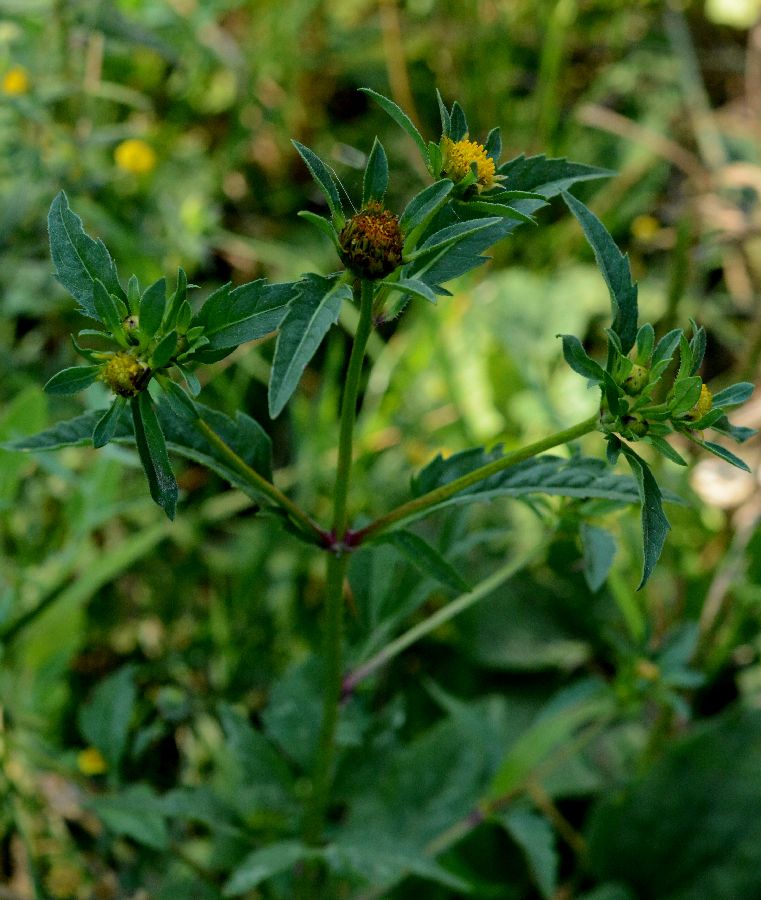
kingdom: Plantae
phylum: Tracheophyta
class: Magnoliopsida
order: Asterales
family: Asteraceae
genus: Bidens
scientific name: Bidens tripartita
